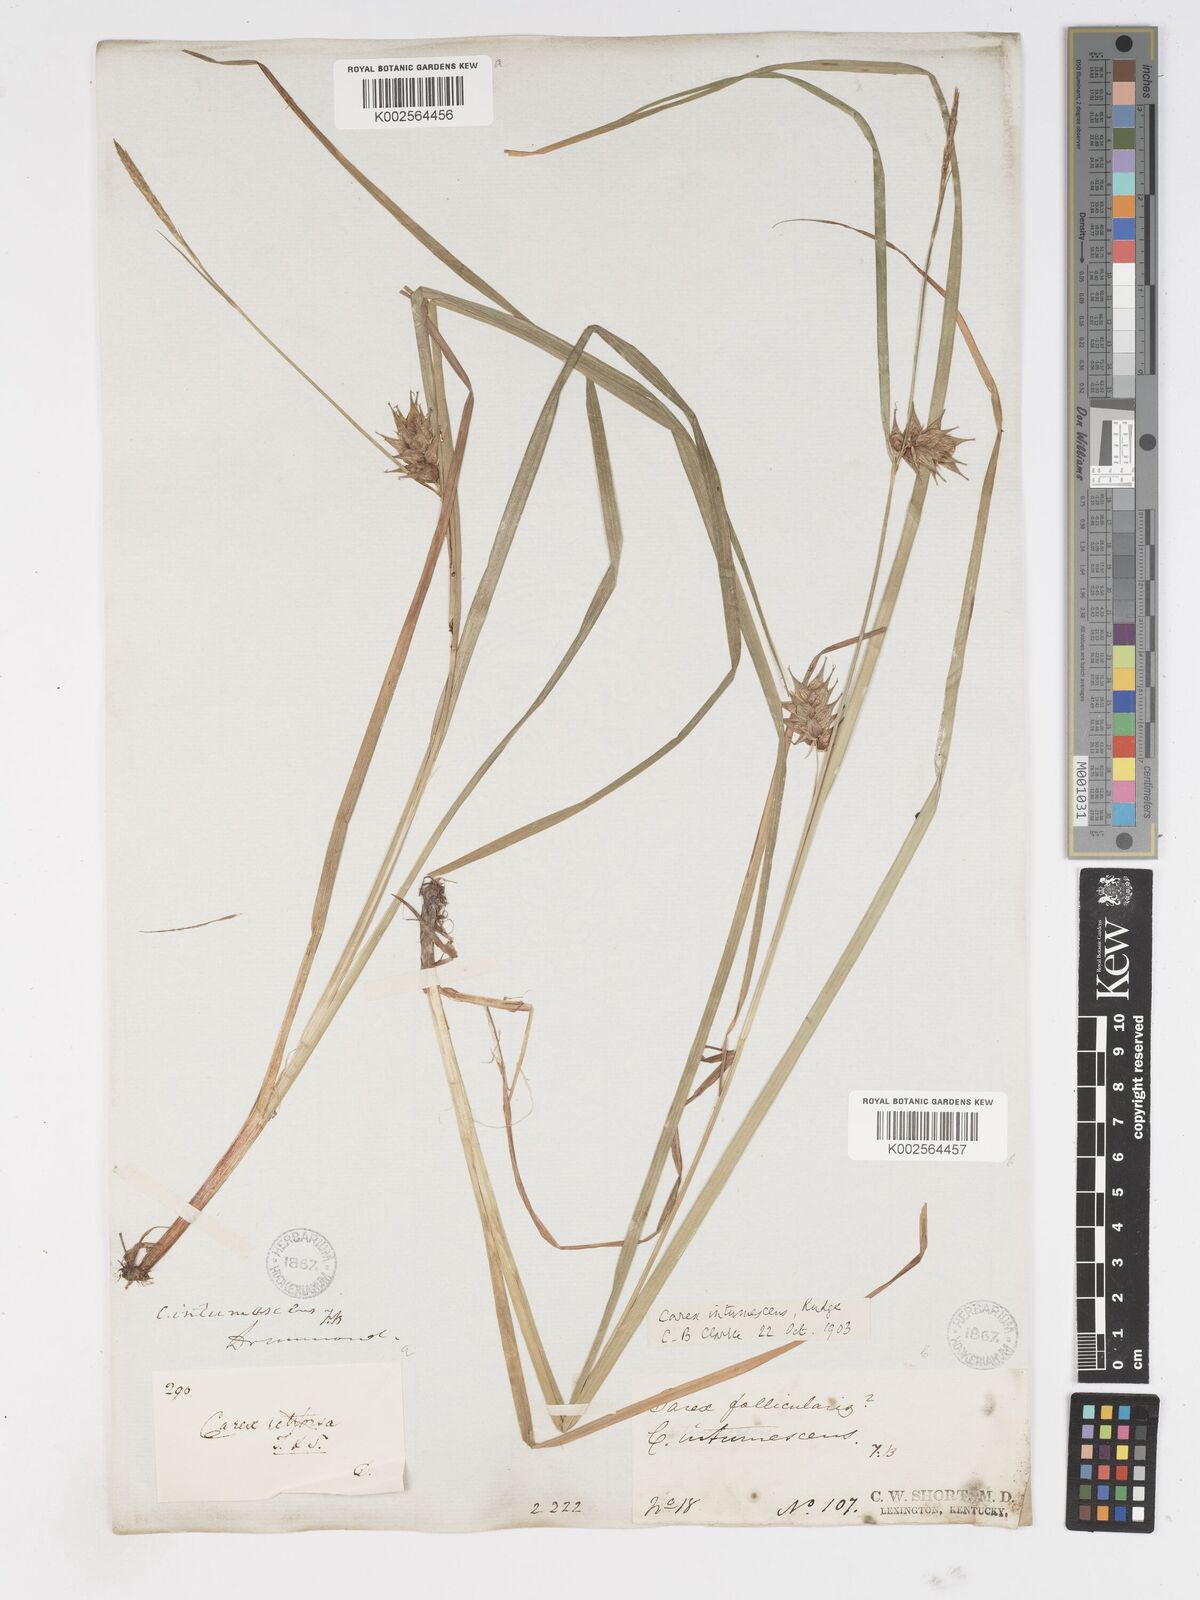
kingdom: Plantae
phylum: Tracheophyta
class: Liliopsida
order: Poales
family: Cyperaceae
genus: Carex
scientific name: Carex intumescens
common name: Greater bladder sedge
